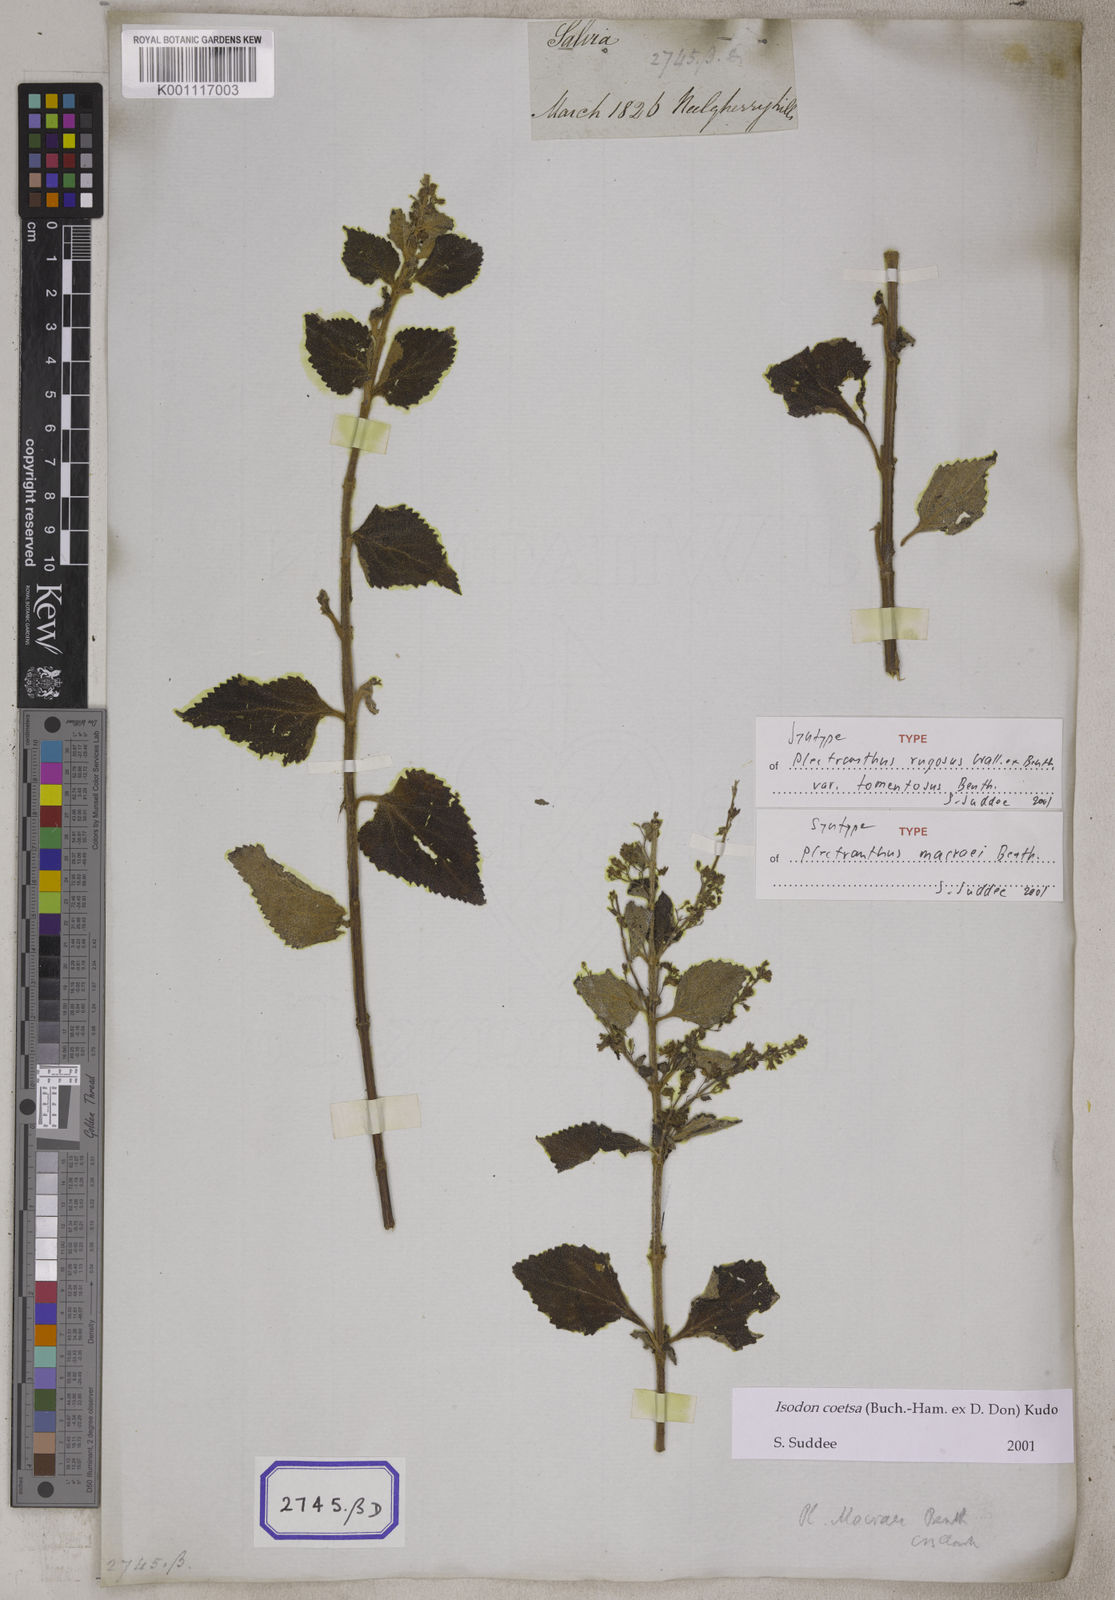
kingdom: Plantae
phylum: Tracheophyta
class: Magnoliopsida
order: Lamiales
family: Lamiaceae
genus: Plectranthus
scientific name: Plectranthus
